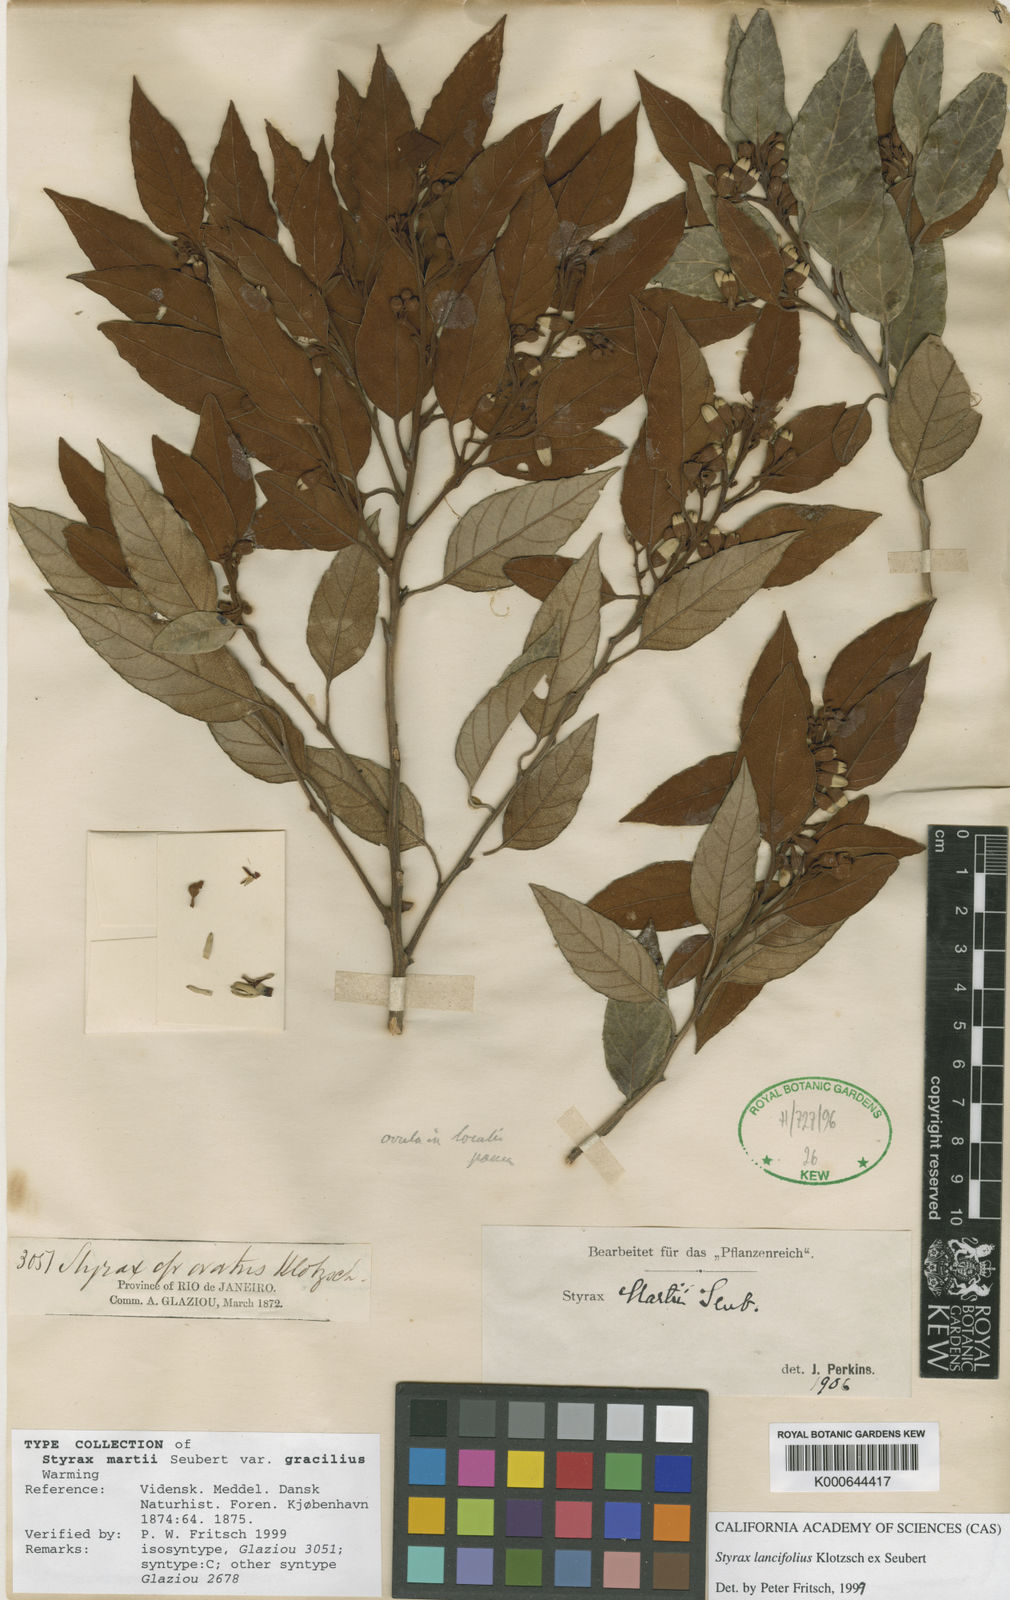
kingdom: Plantae
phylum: Tracheophyta
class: Magnoliopsida
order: Ericales
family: Styracaceae
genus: Styrax
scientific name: Styrax guyanensis
